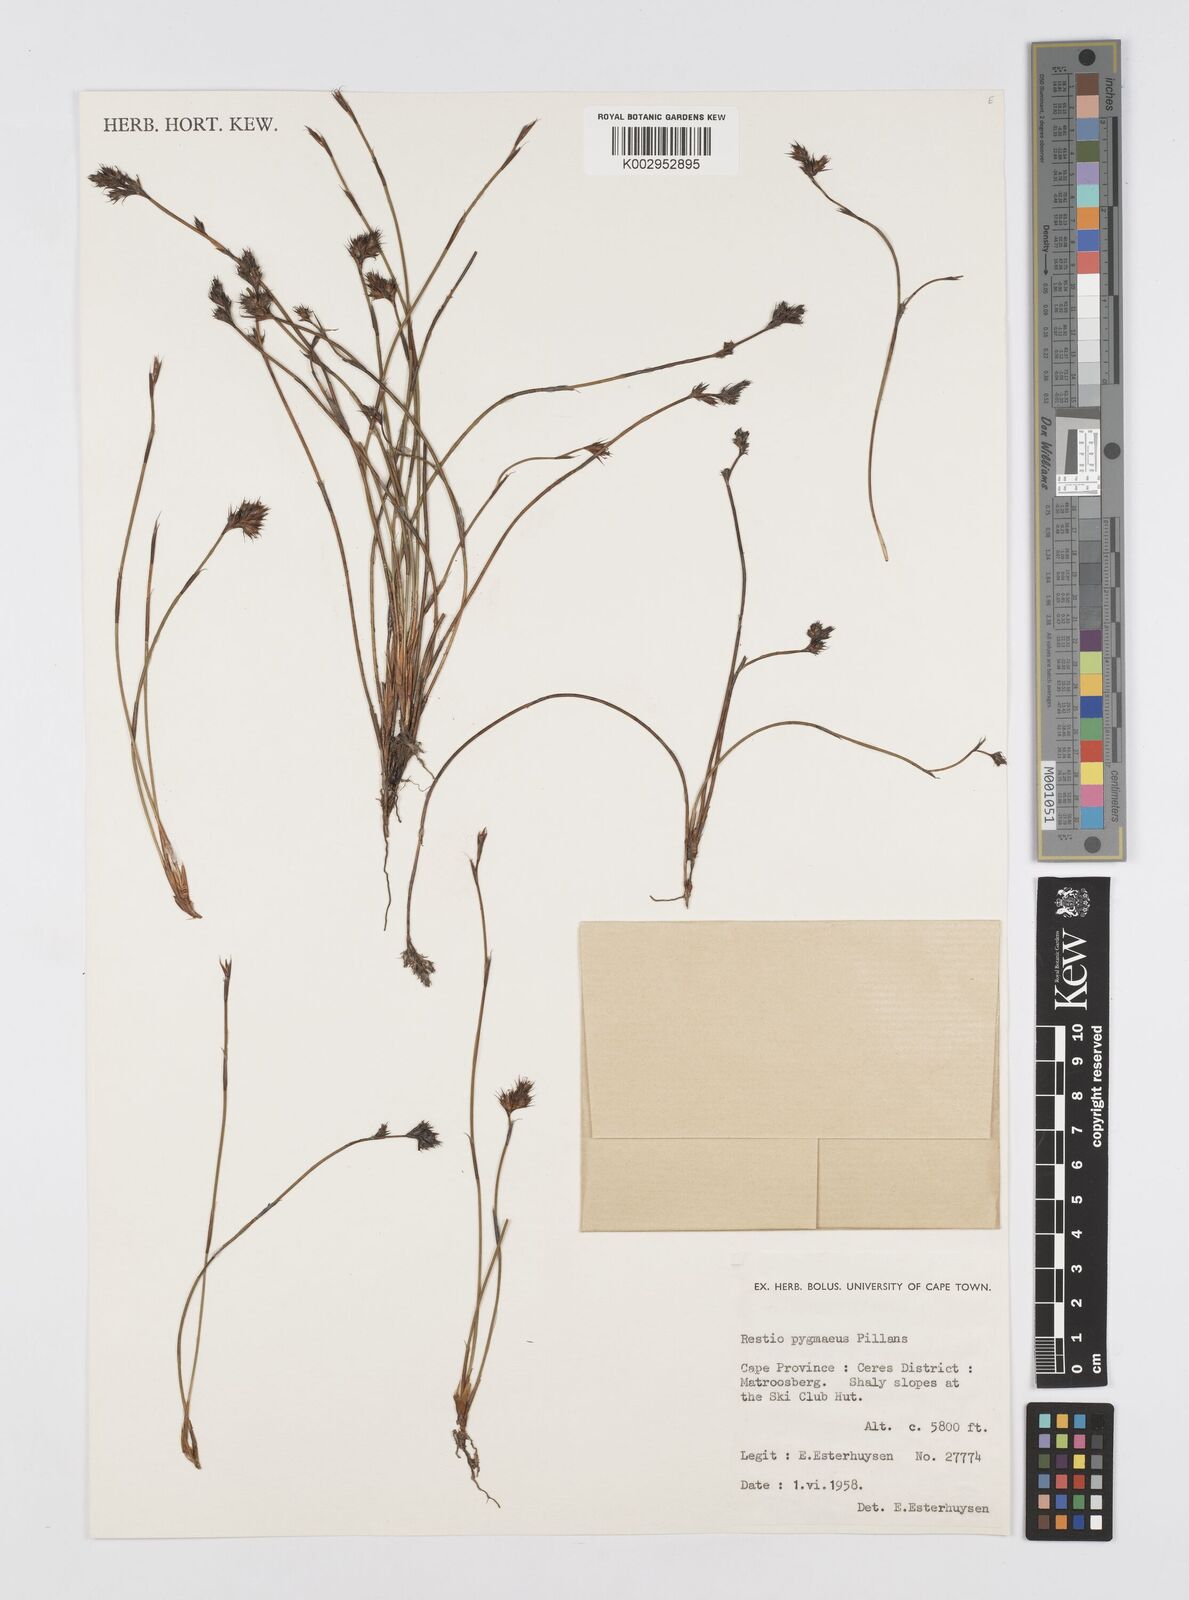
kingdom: Plantae
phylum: Tracheophyta
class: Liliopsida
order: Poales
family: Restionaceae
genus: Restio
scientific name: Restio pygmaeus
